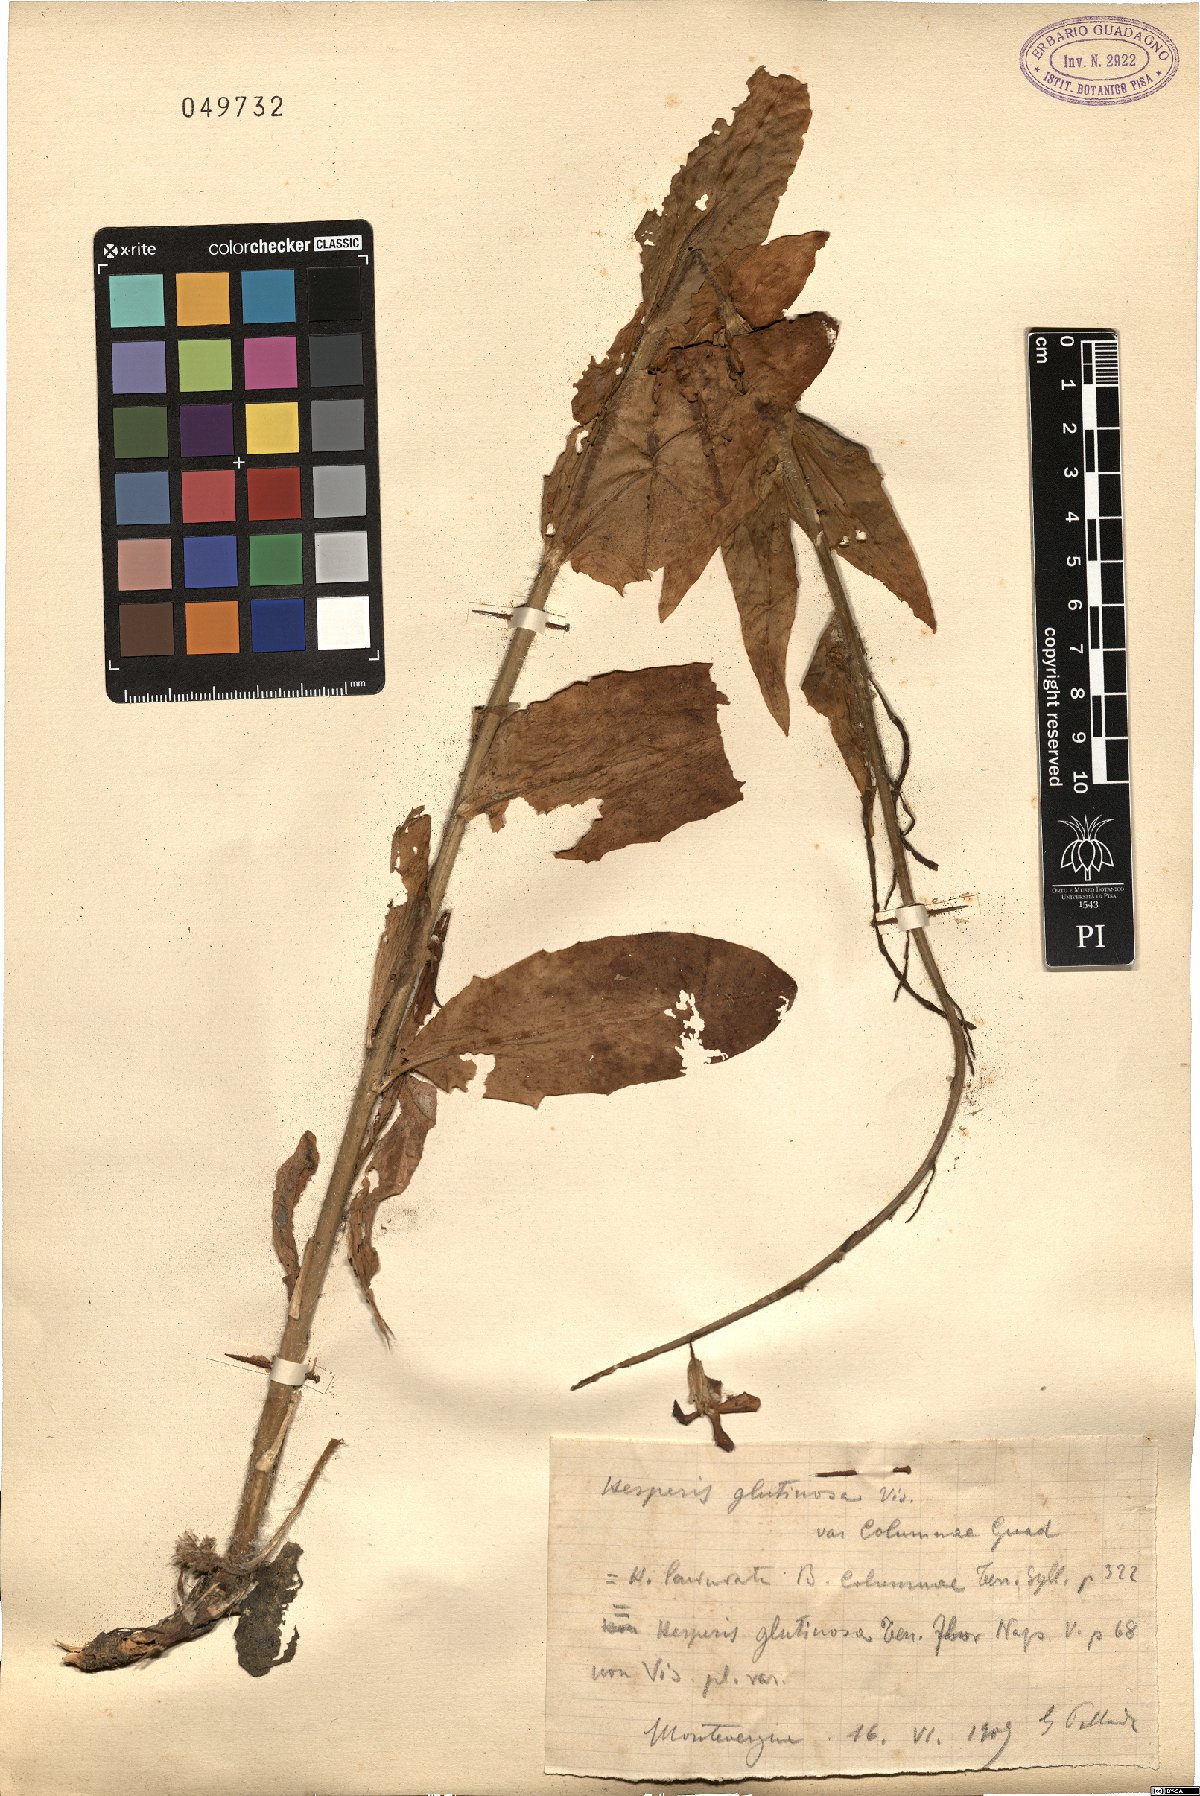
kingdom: Plantae
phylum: Tracheophyta
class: Magnoliopsida
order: Brassicales
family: Brassicaceae
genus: Hesperis
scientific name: Hesperis laciniata
